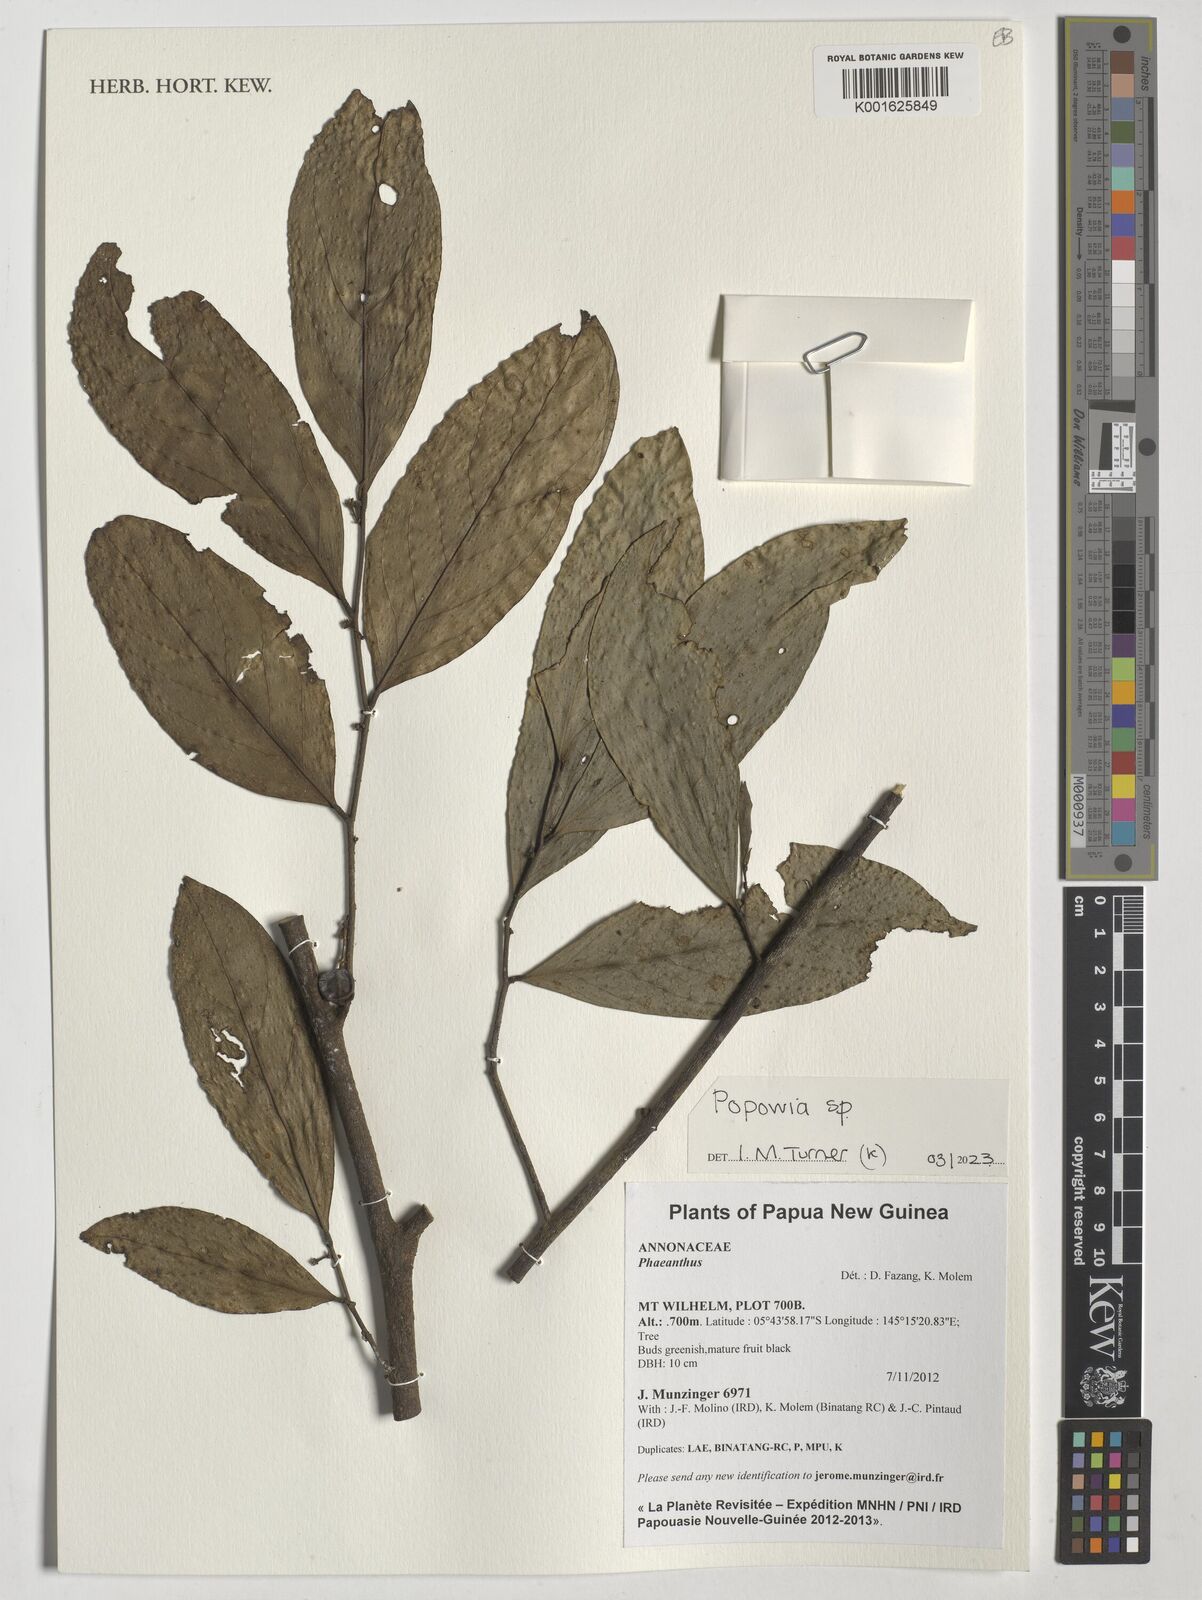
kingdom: Plantae
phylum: Tracheophyta
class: Magnoliopsida
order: Magnoliales
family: Annonaceae
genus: Popowia
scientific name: Popowia
